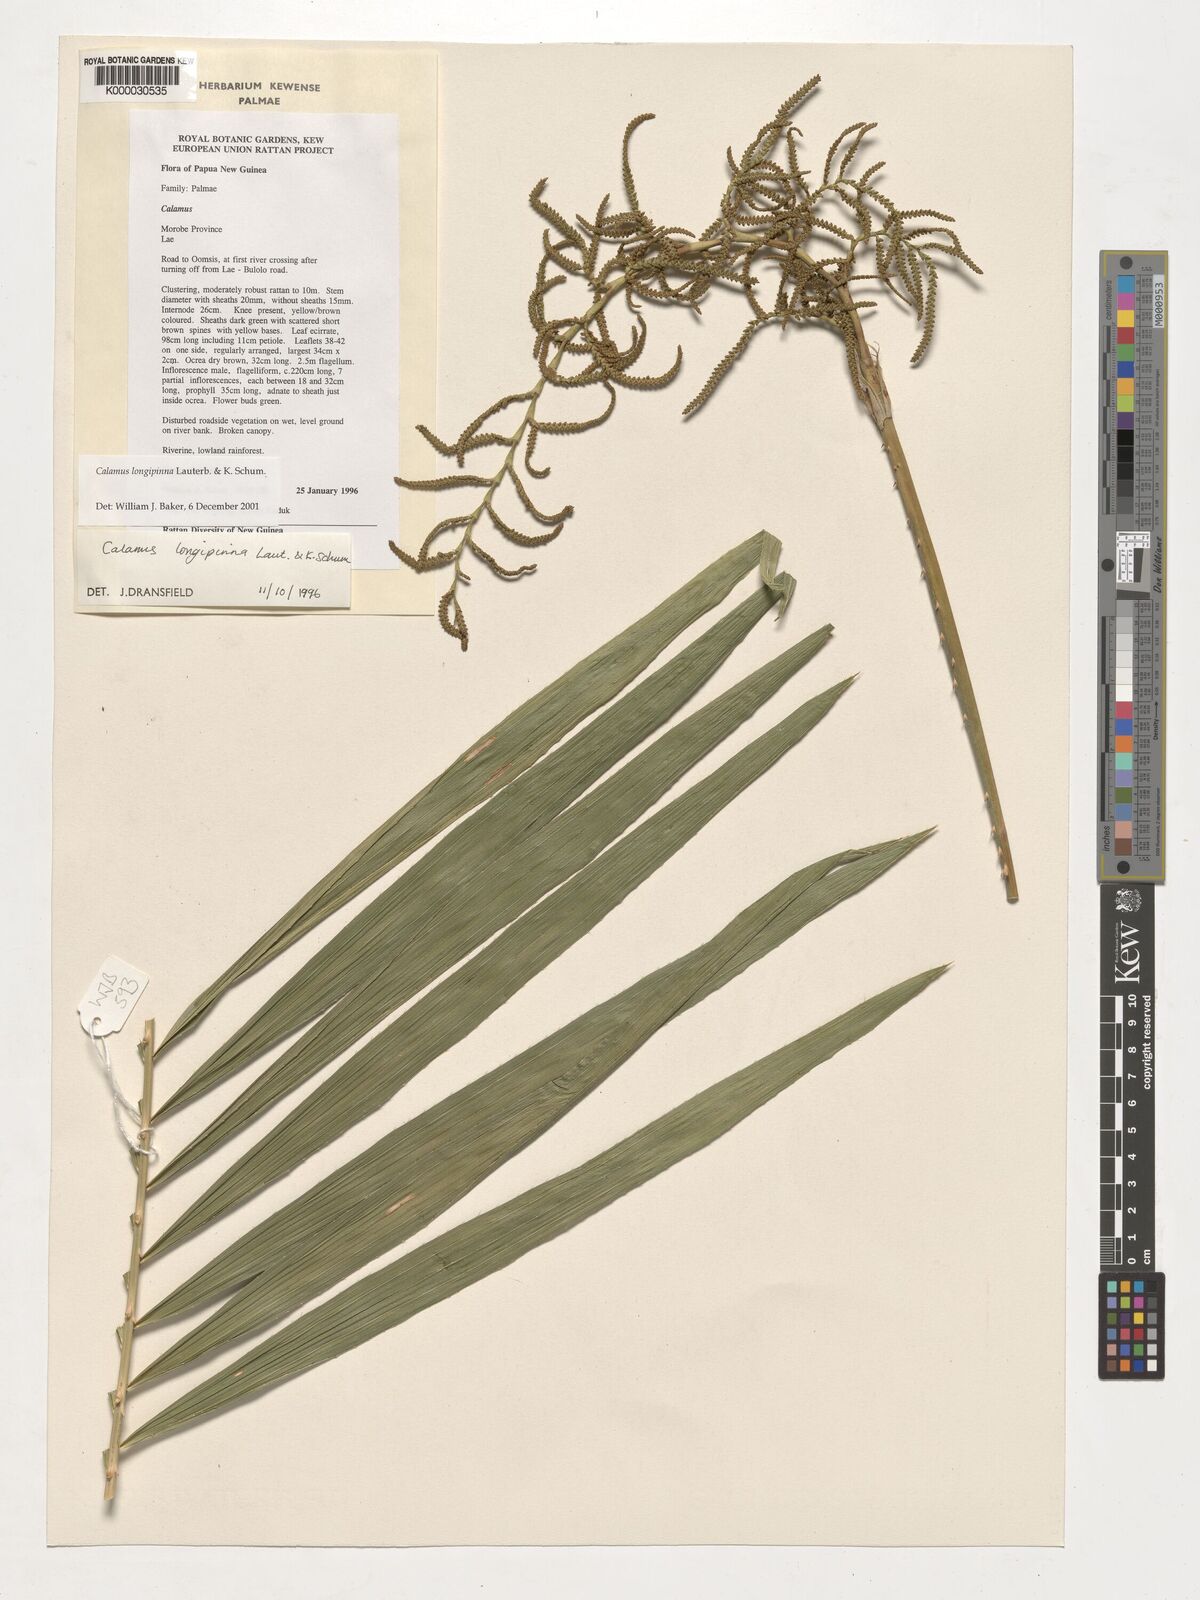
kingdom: Plantae
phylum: Tracheophyta
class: Liliopsida
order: Arecales
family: Arecaceae
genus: Calamus
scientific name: Calamus longipinna
